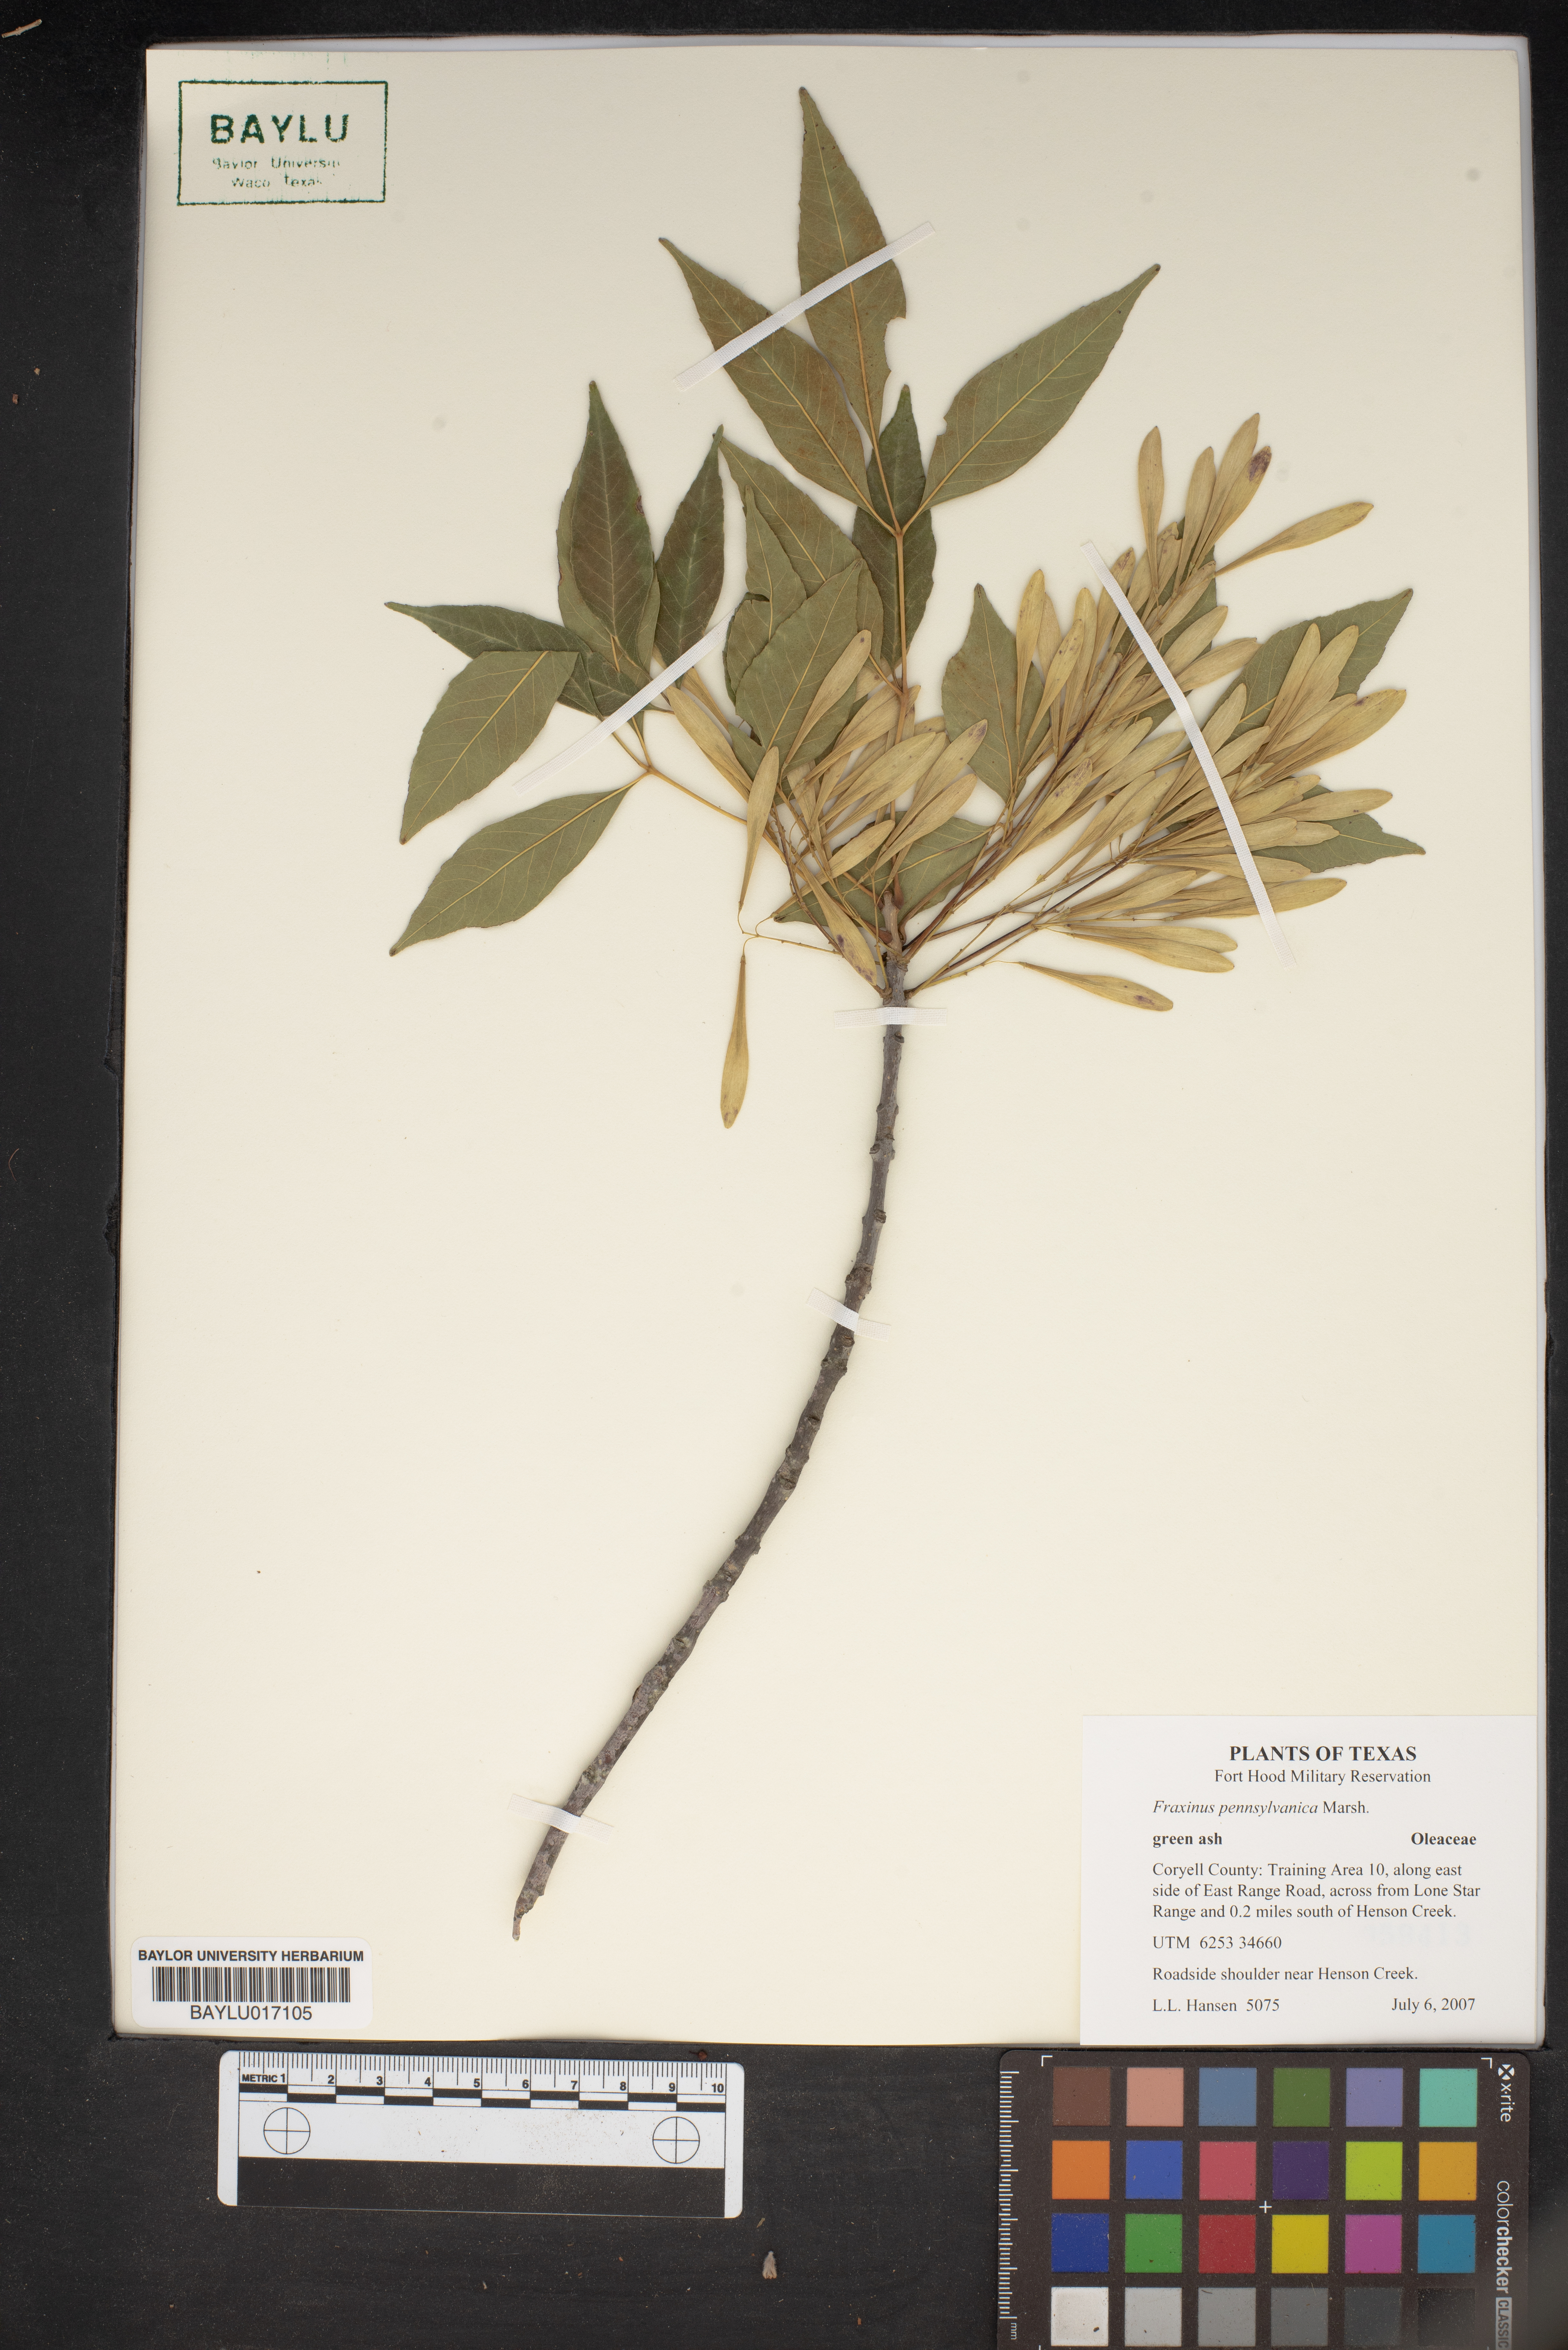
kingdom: Plantae
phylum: Tracheophyta
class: Magnoliopsida
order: Lamiales
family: Oleaceae
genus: Fraxinus
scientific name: Fraxinus pennsylvanica
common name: Green ash
